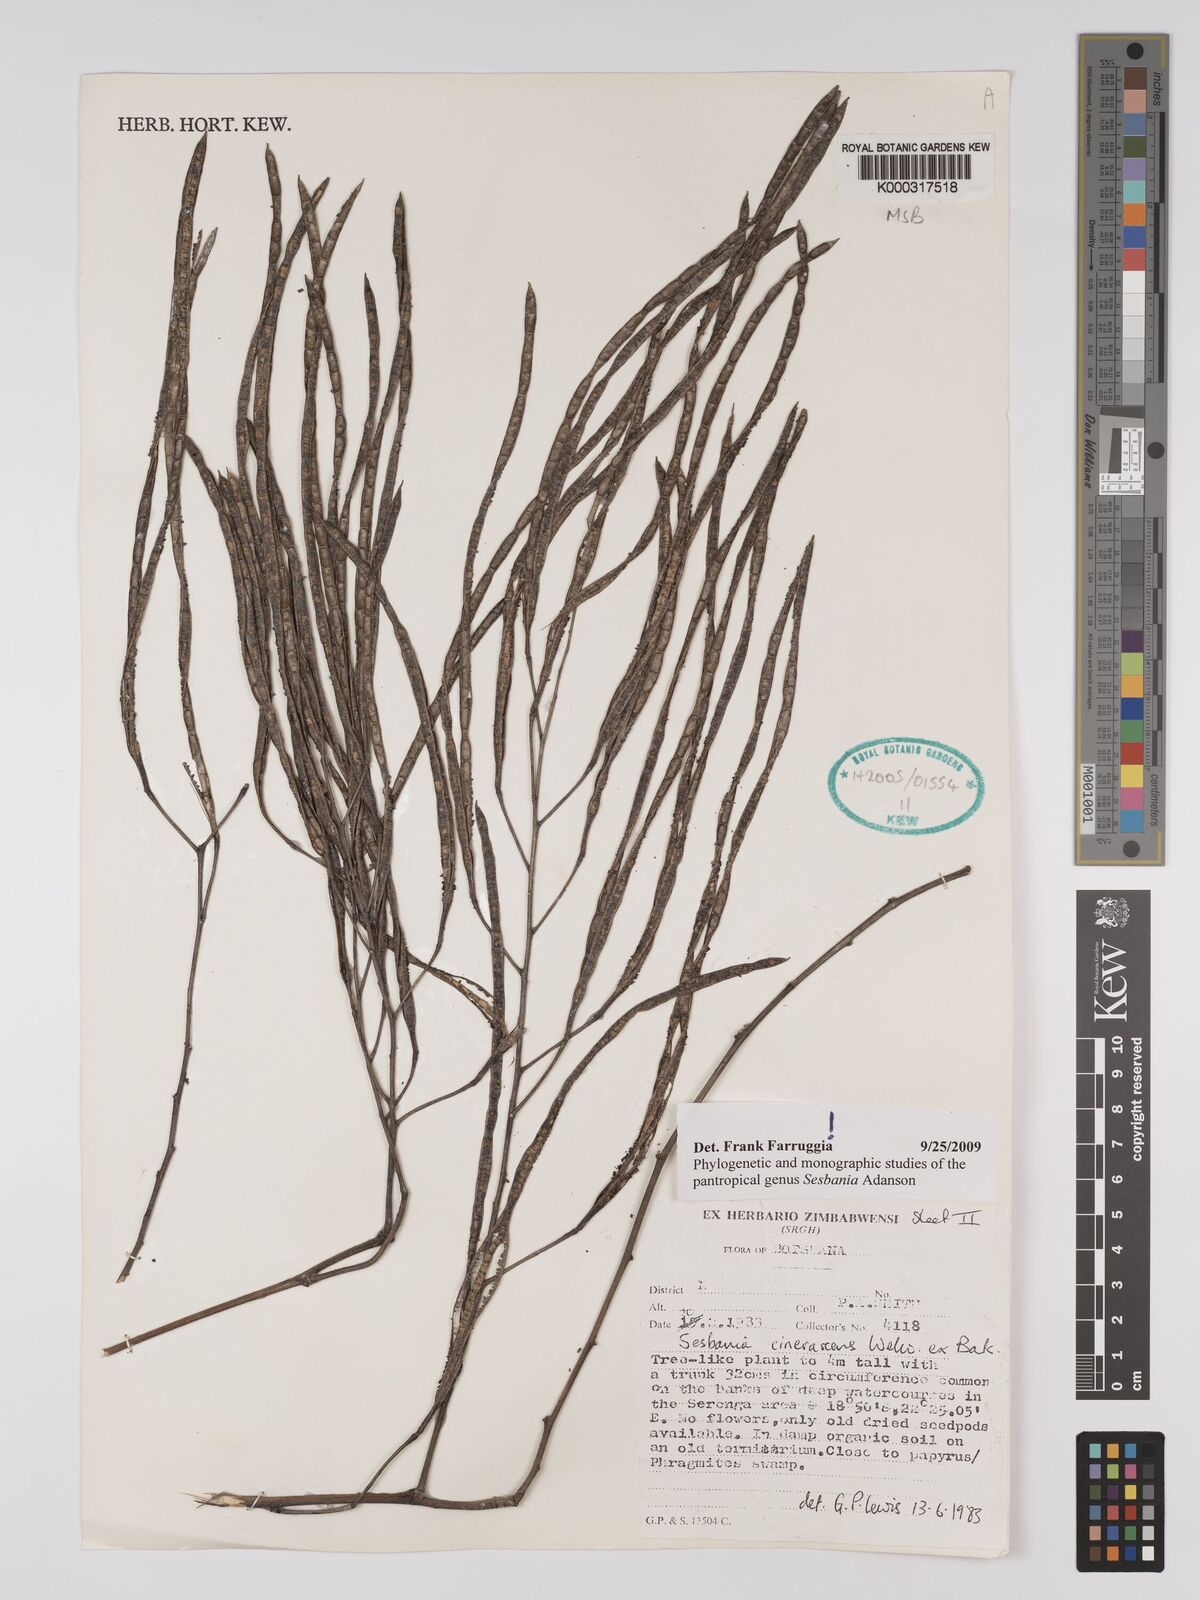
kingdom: Plantae
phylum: Tracheophyta
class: Magnoliopsida
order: Fabales
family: Fabaceae
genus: Sesbania
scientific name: Sesbania cinerascens
